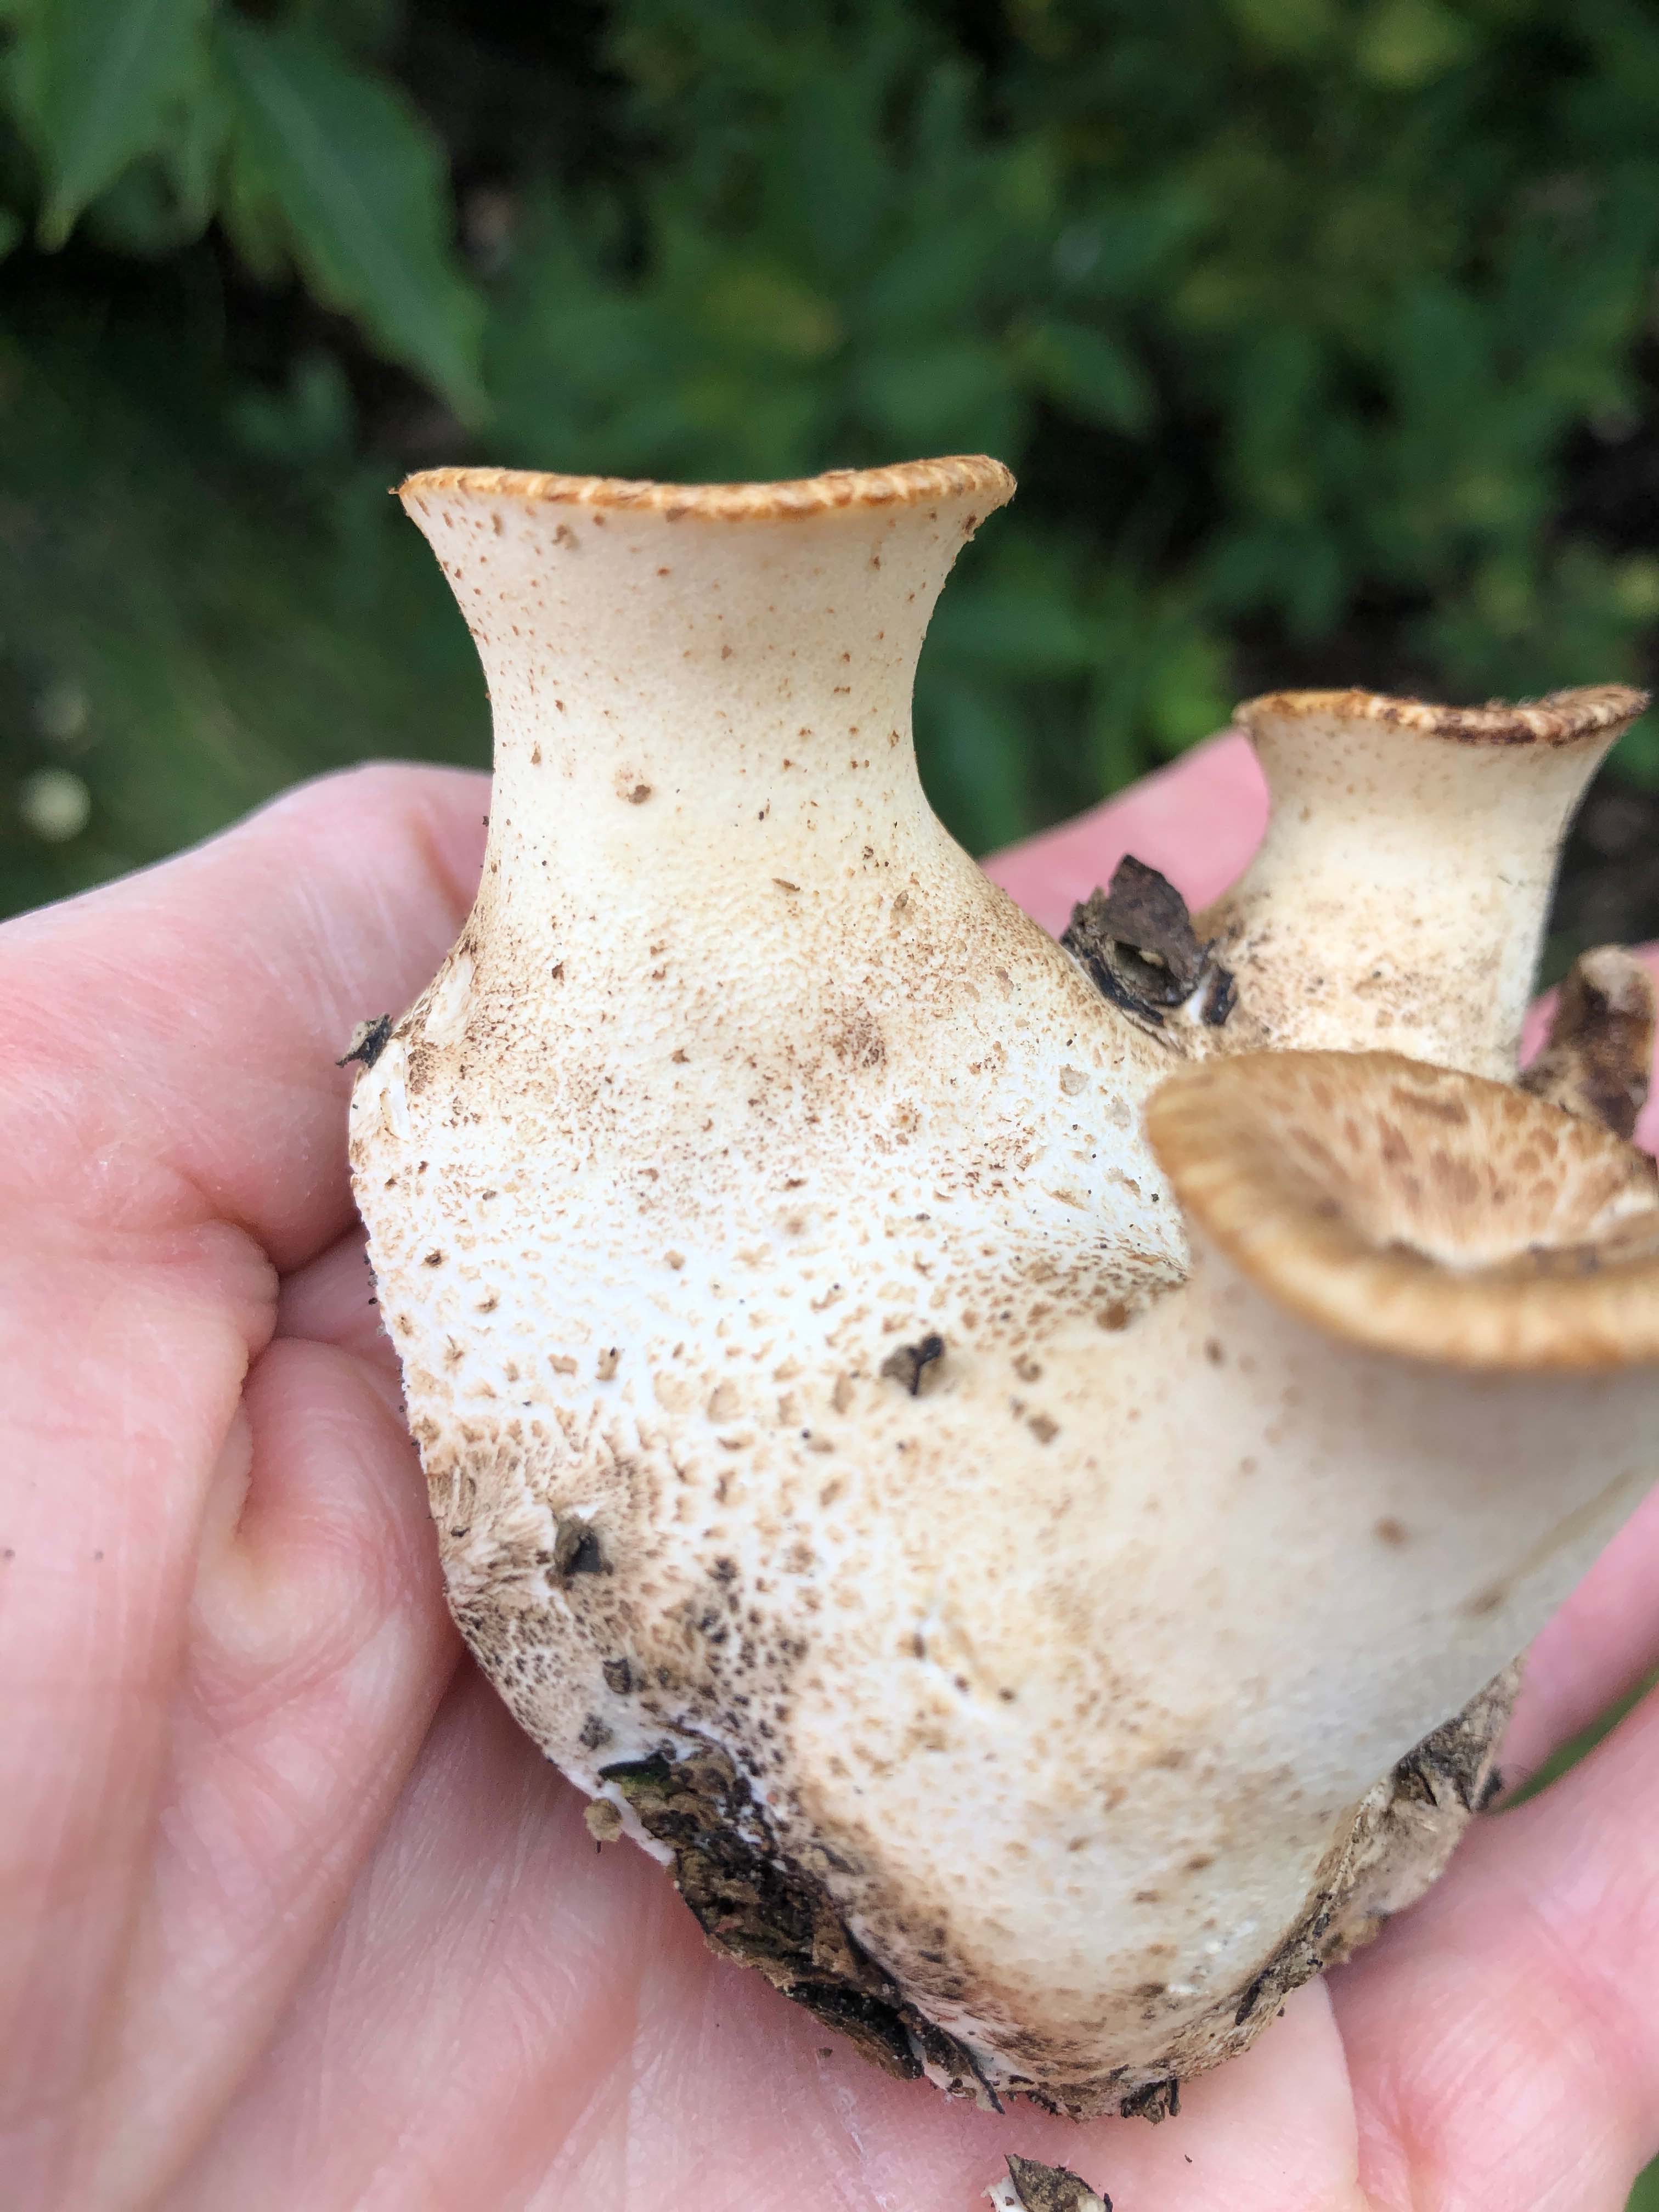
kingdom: Fungi
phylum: Basidiomycota
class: Agaricomycetes
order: Polyporales
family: Polyporaceae
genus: Polyporus
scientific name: Polyporus tuberaster
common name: knoldet stilkporesvamp
